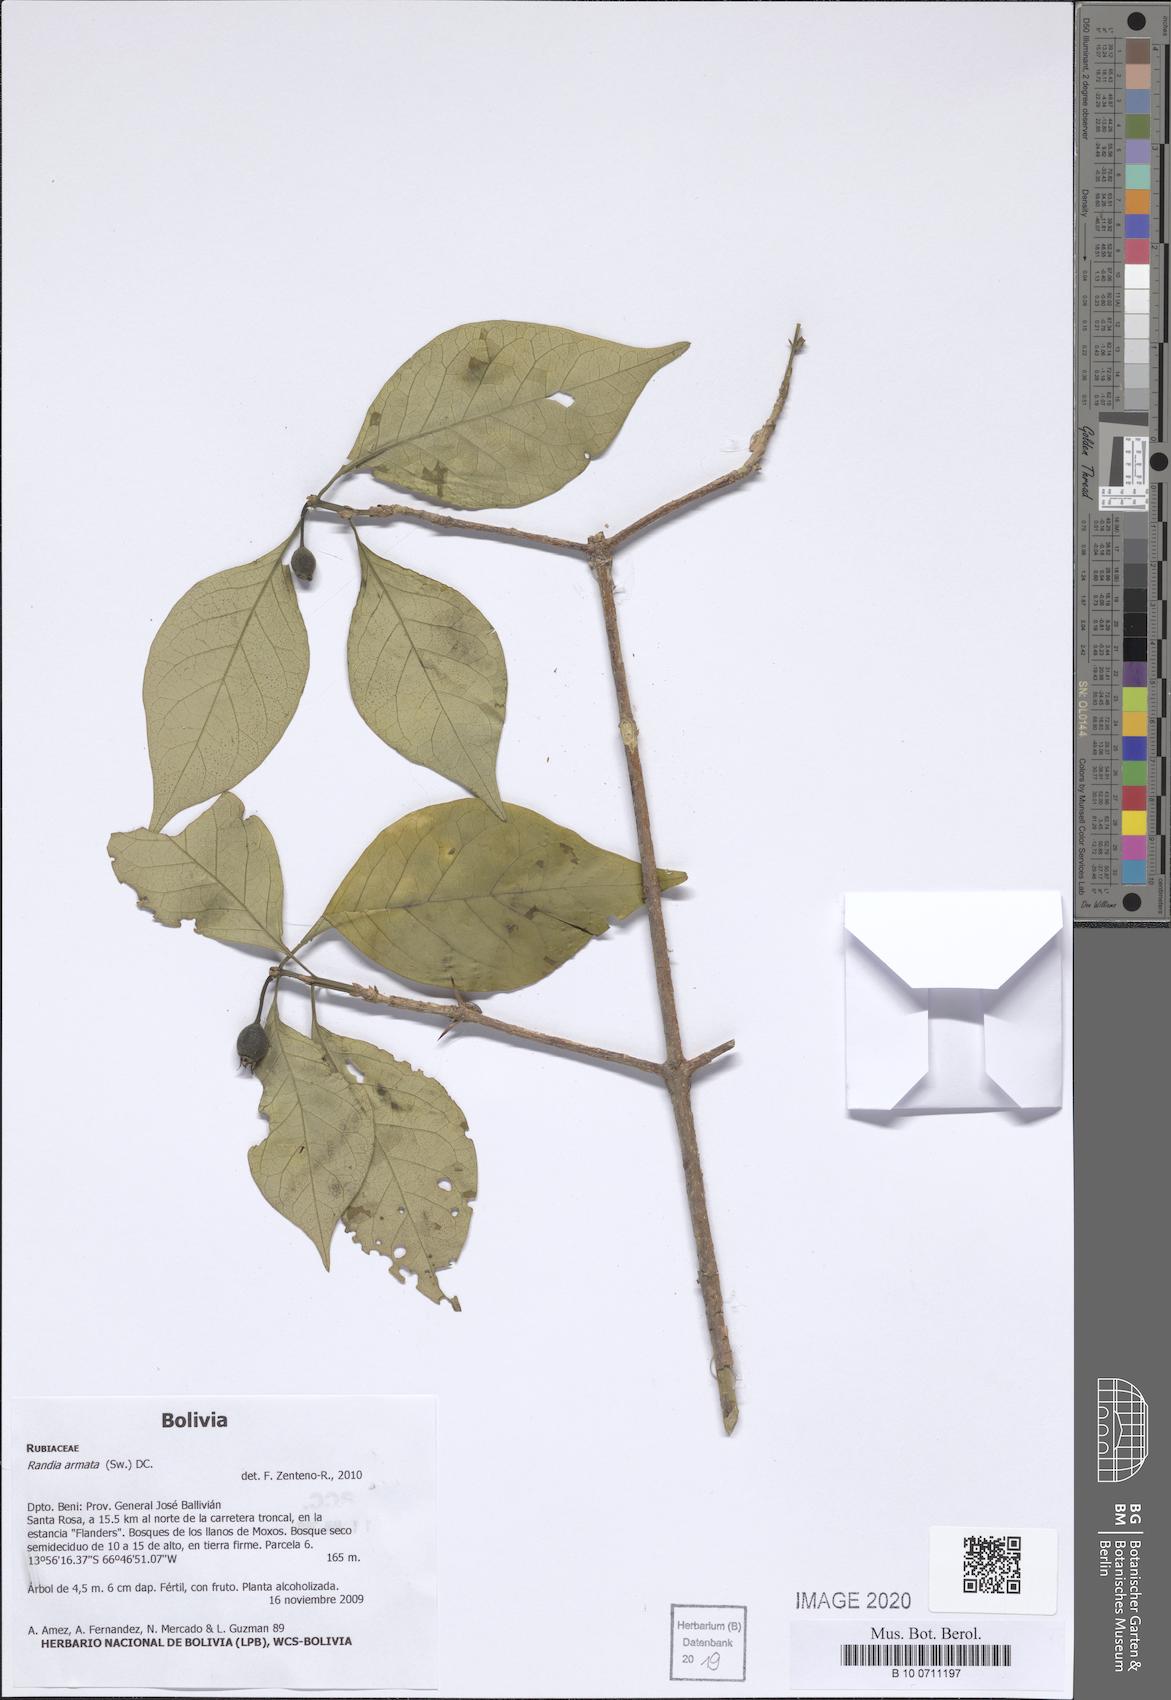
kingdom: Plantae
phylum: Tracheophyta
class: Magnoliopsida
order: Gentianales
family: Rubiaceae
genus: Randia
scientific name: Randia armata
